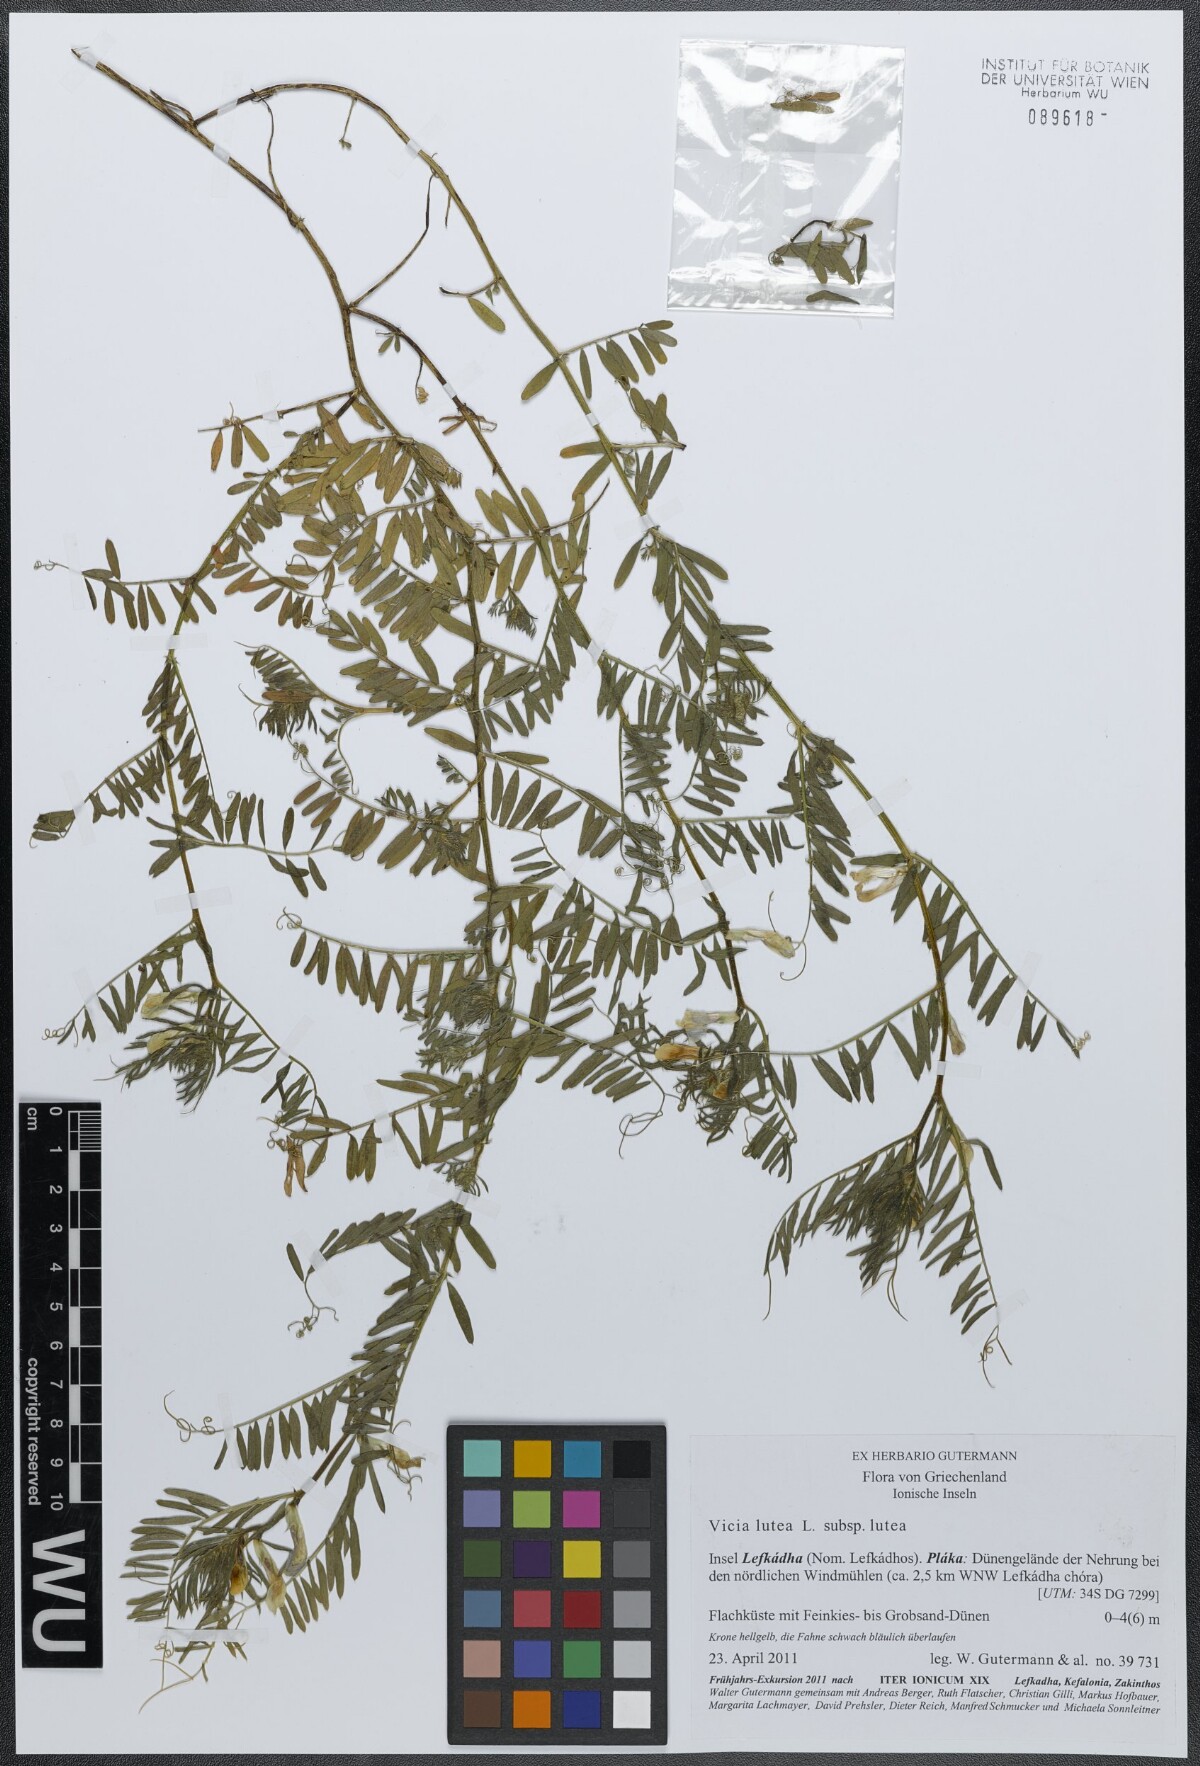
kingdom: Plantae
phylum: Tracheophyta
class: Magnoliopsida
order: Fabales
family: Fabaceae
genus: Vicia
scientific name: Vicia lutea
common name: Smooth yellow vetch
